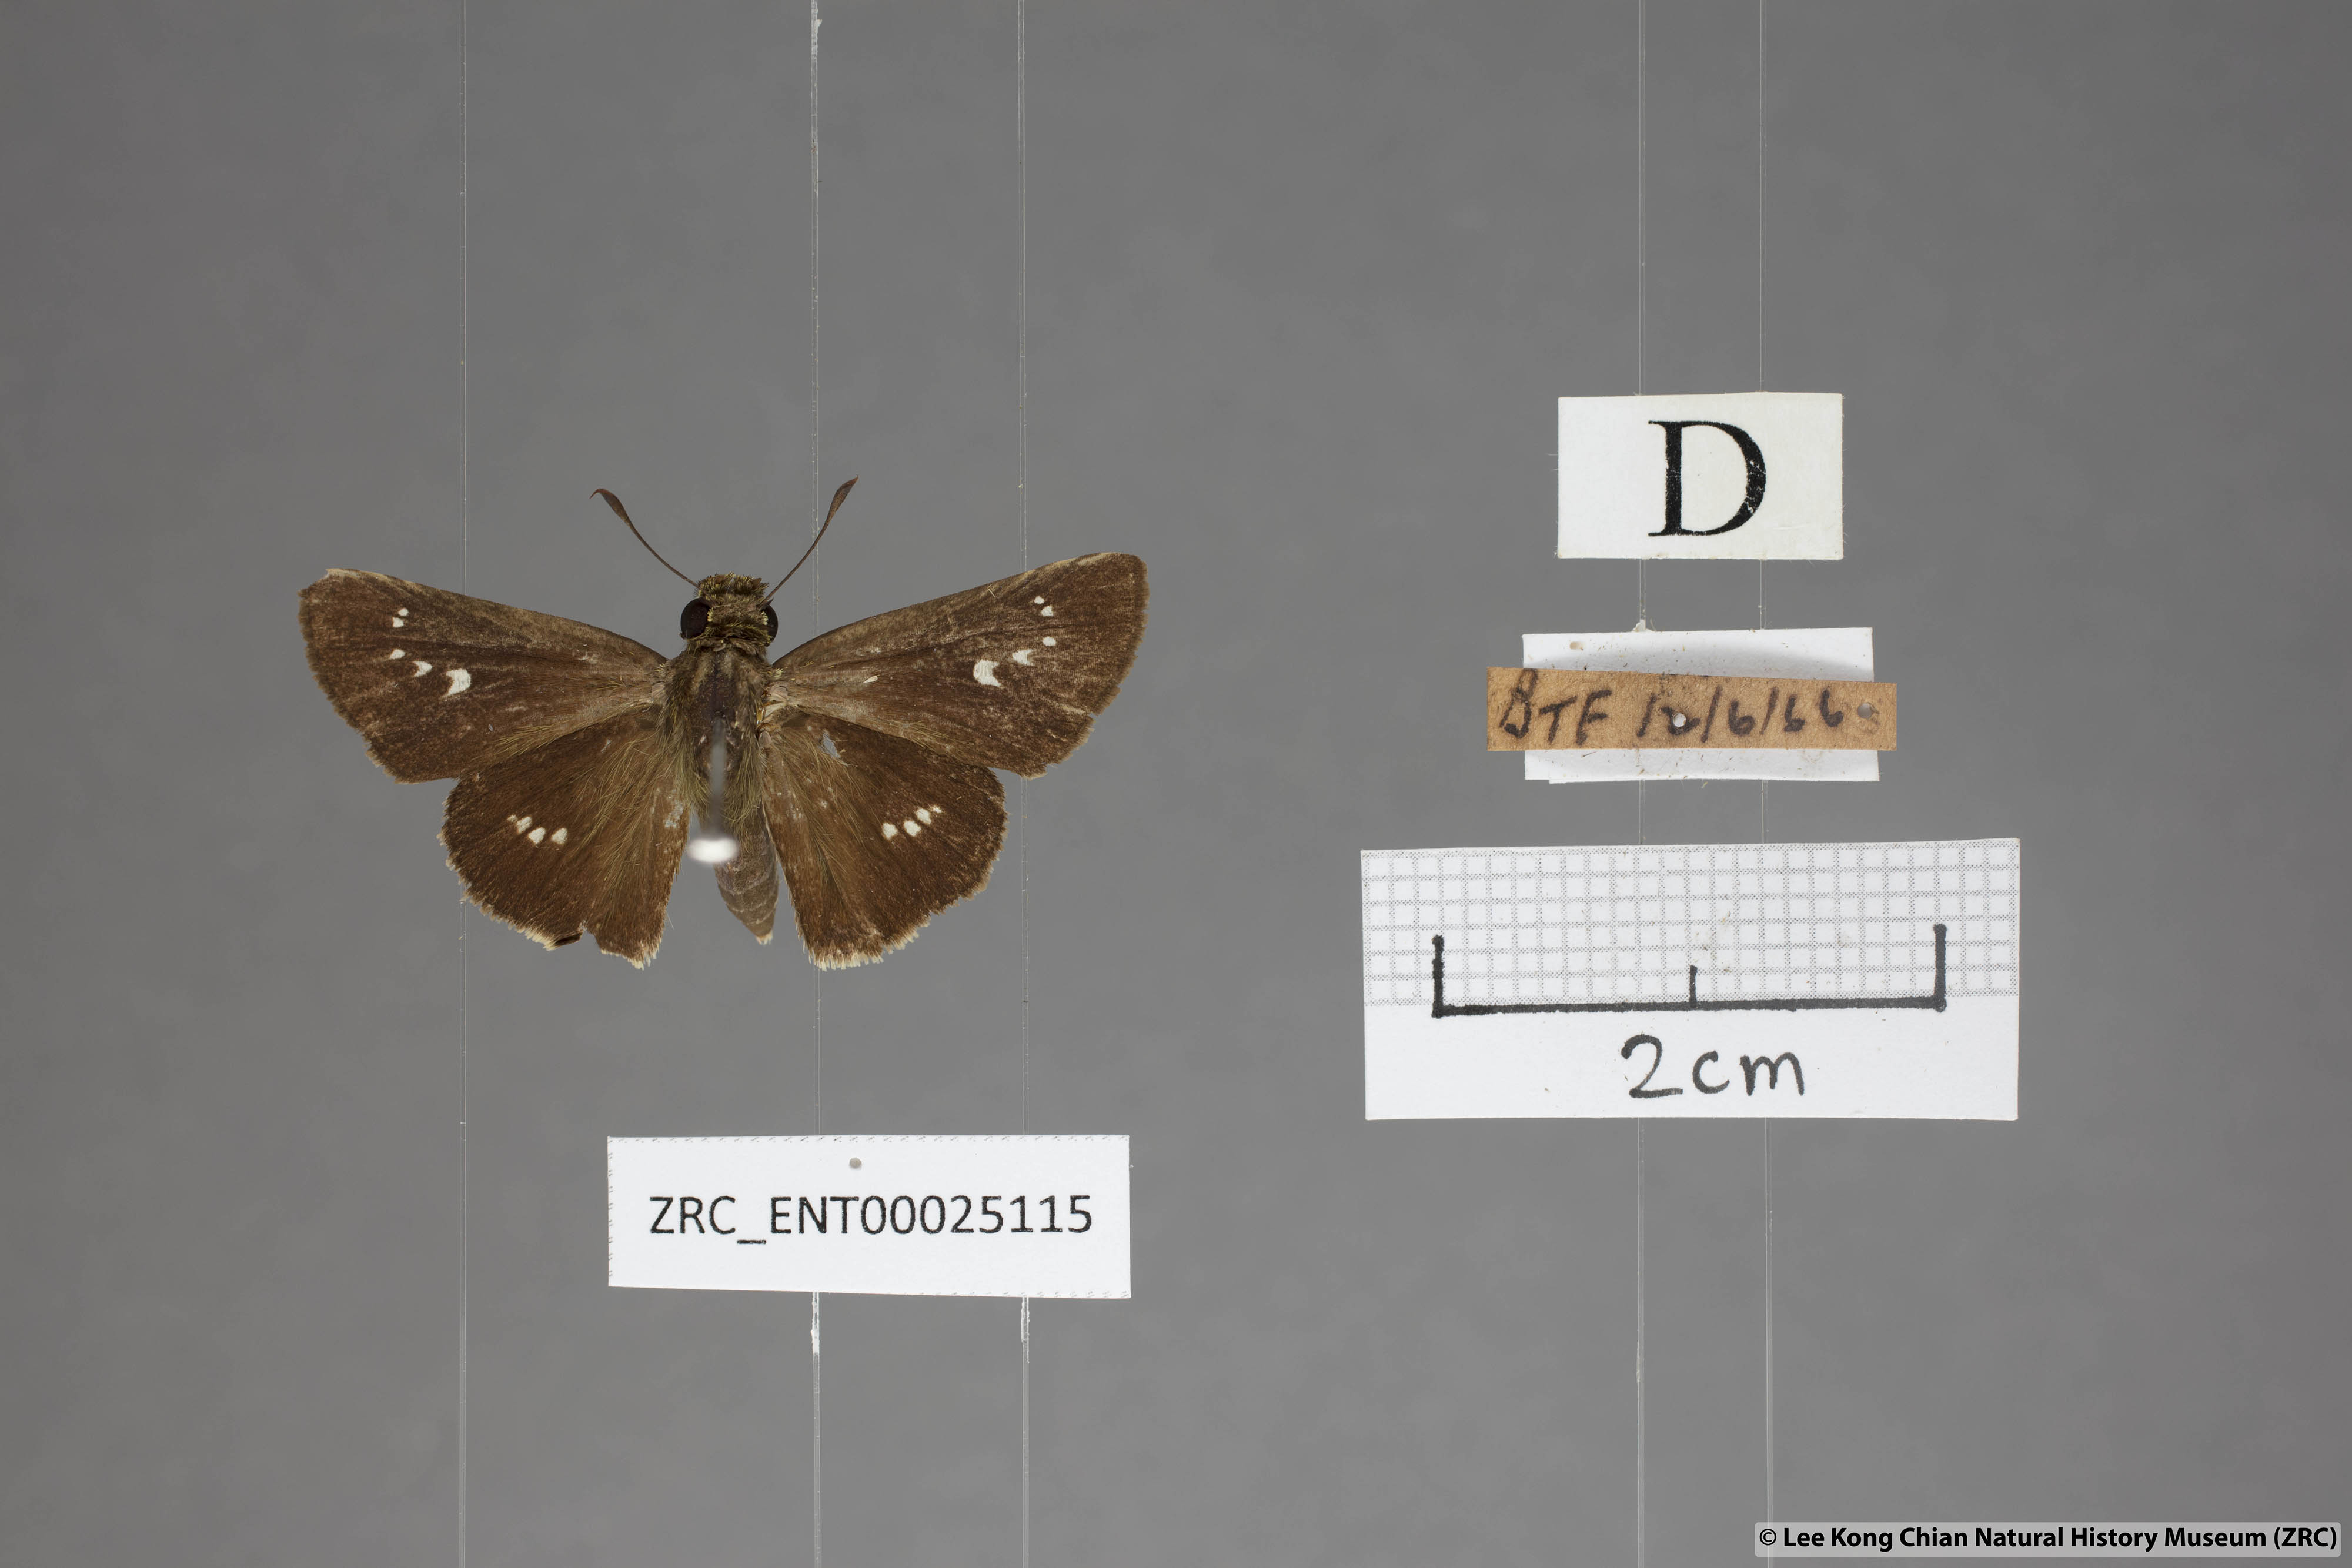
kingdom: Animalia
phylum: Arthropoda
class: Insecta
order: Lepidoptera
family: Hesperiidae
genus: Parnara
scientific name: Parnara apostata
